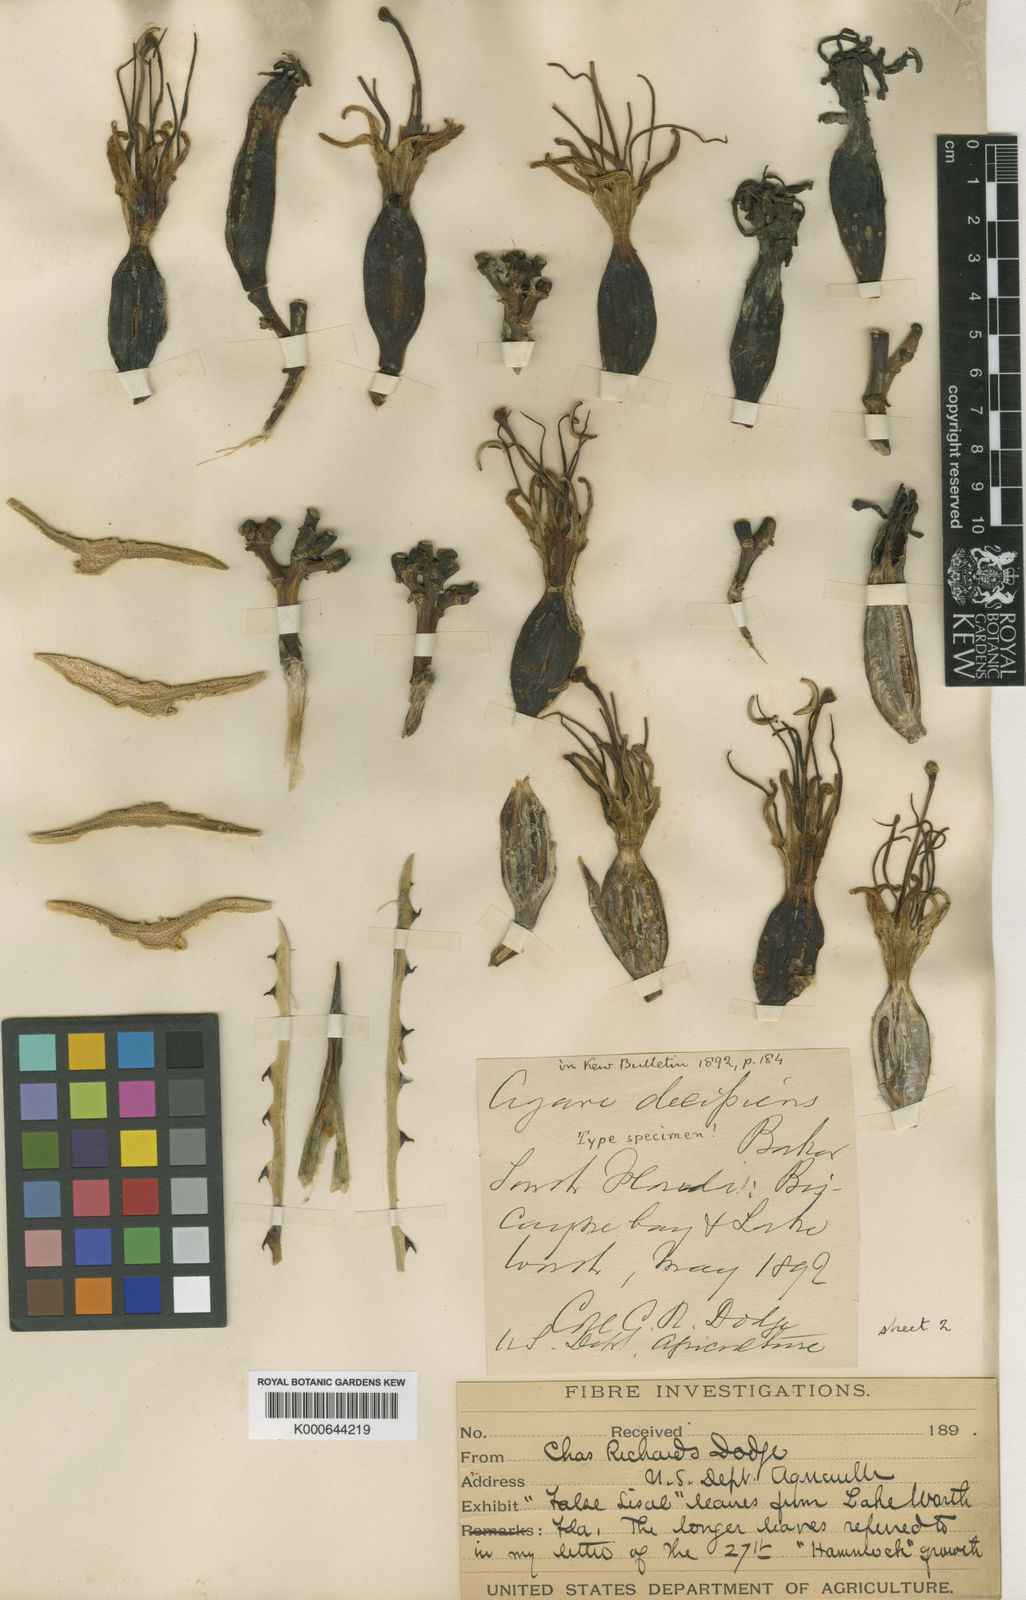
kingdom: Plantae
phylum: Tracheophyta
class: Liliopsida
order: Asparagales
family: Asparagaceae
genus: Agave
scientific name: Agave decipiens
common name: False sisal
